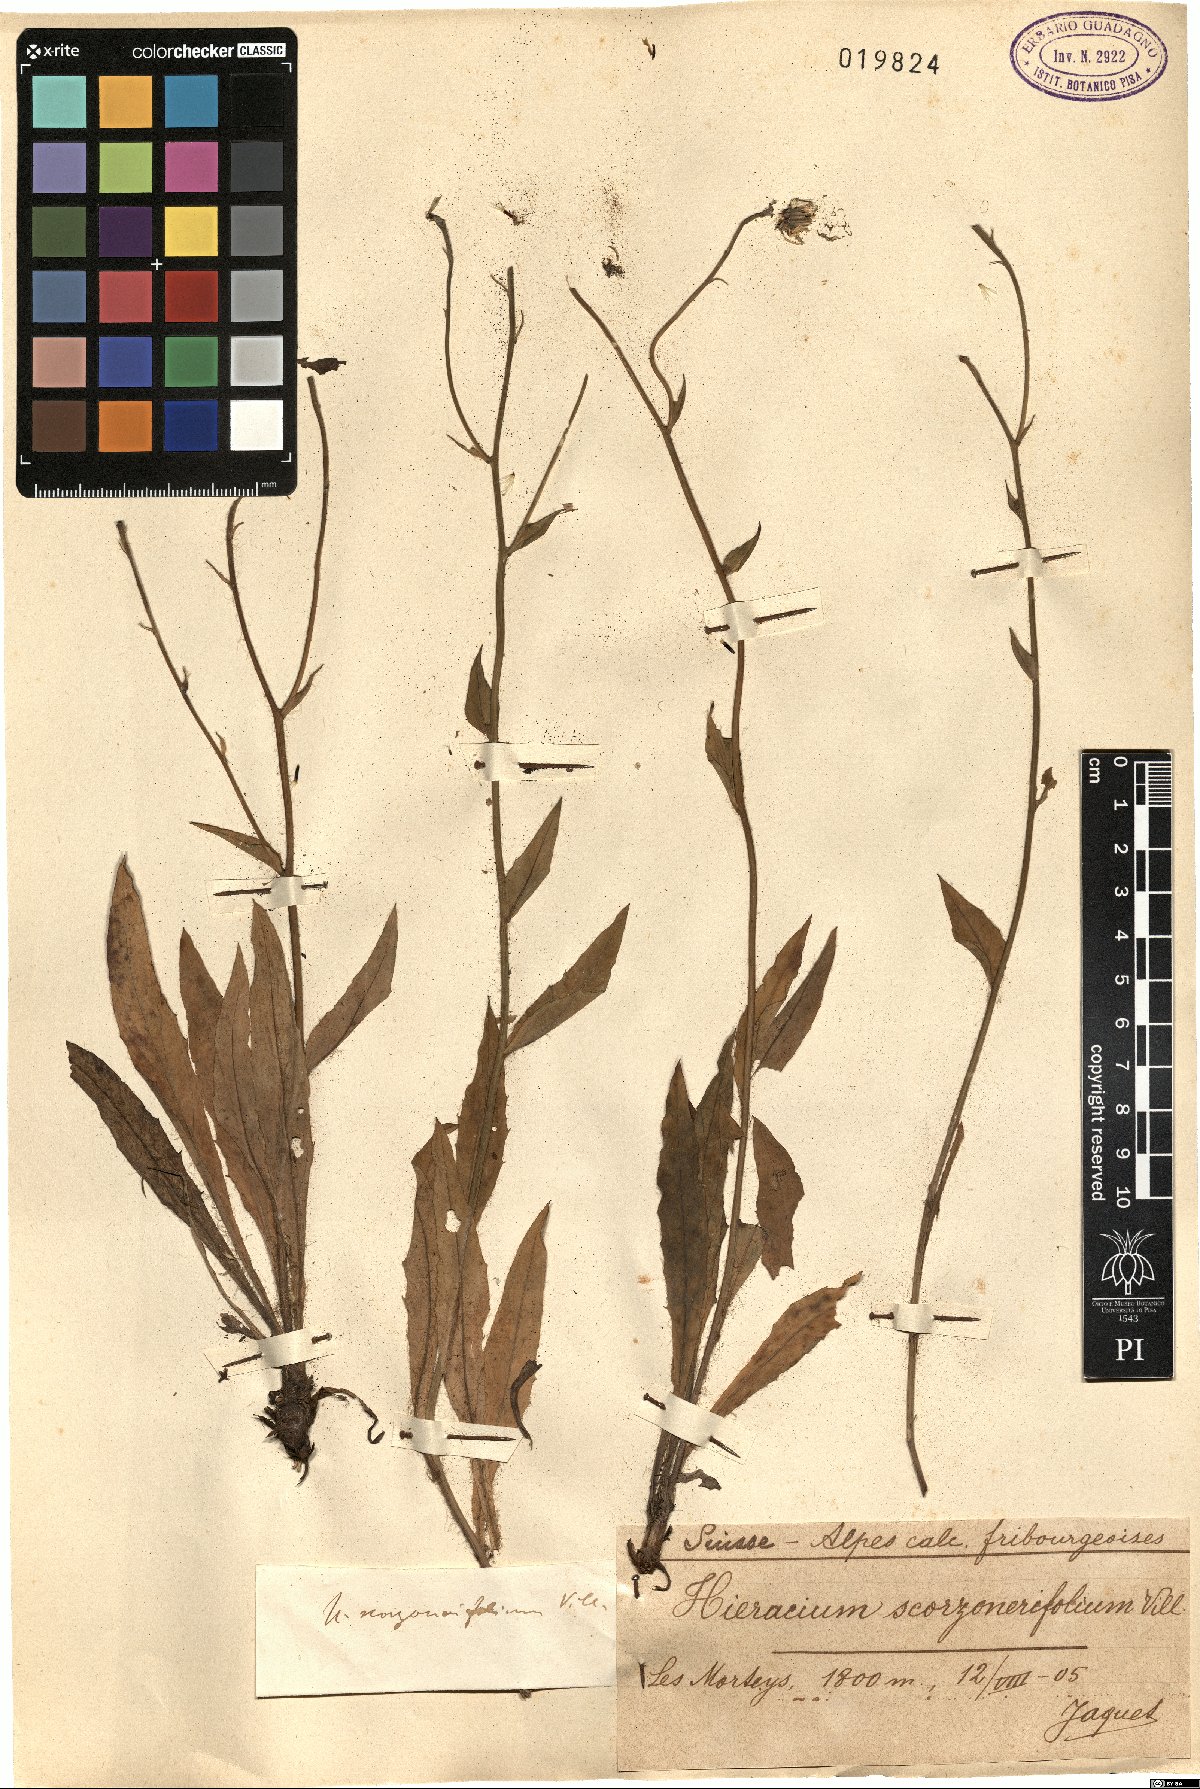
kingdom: Plantae
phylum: Tracheophyta
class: Magnoliopsida
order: Asterales
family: Asteraceae
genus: Hieracium
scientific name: Hieracium scorzonerifolium
